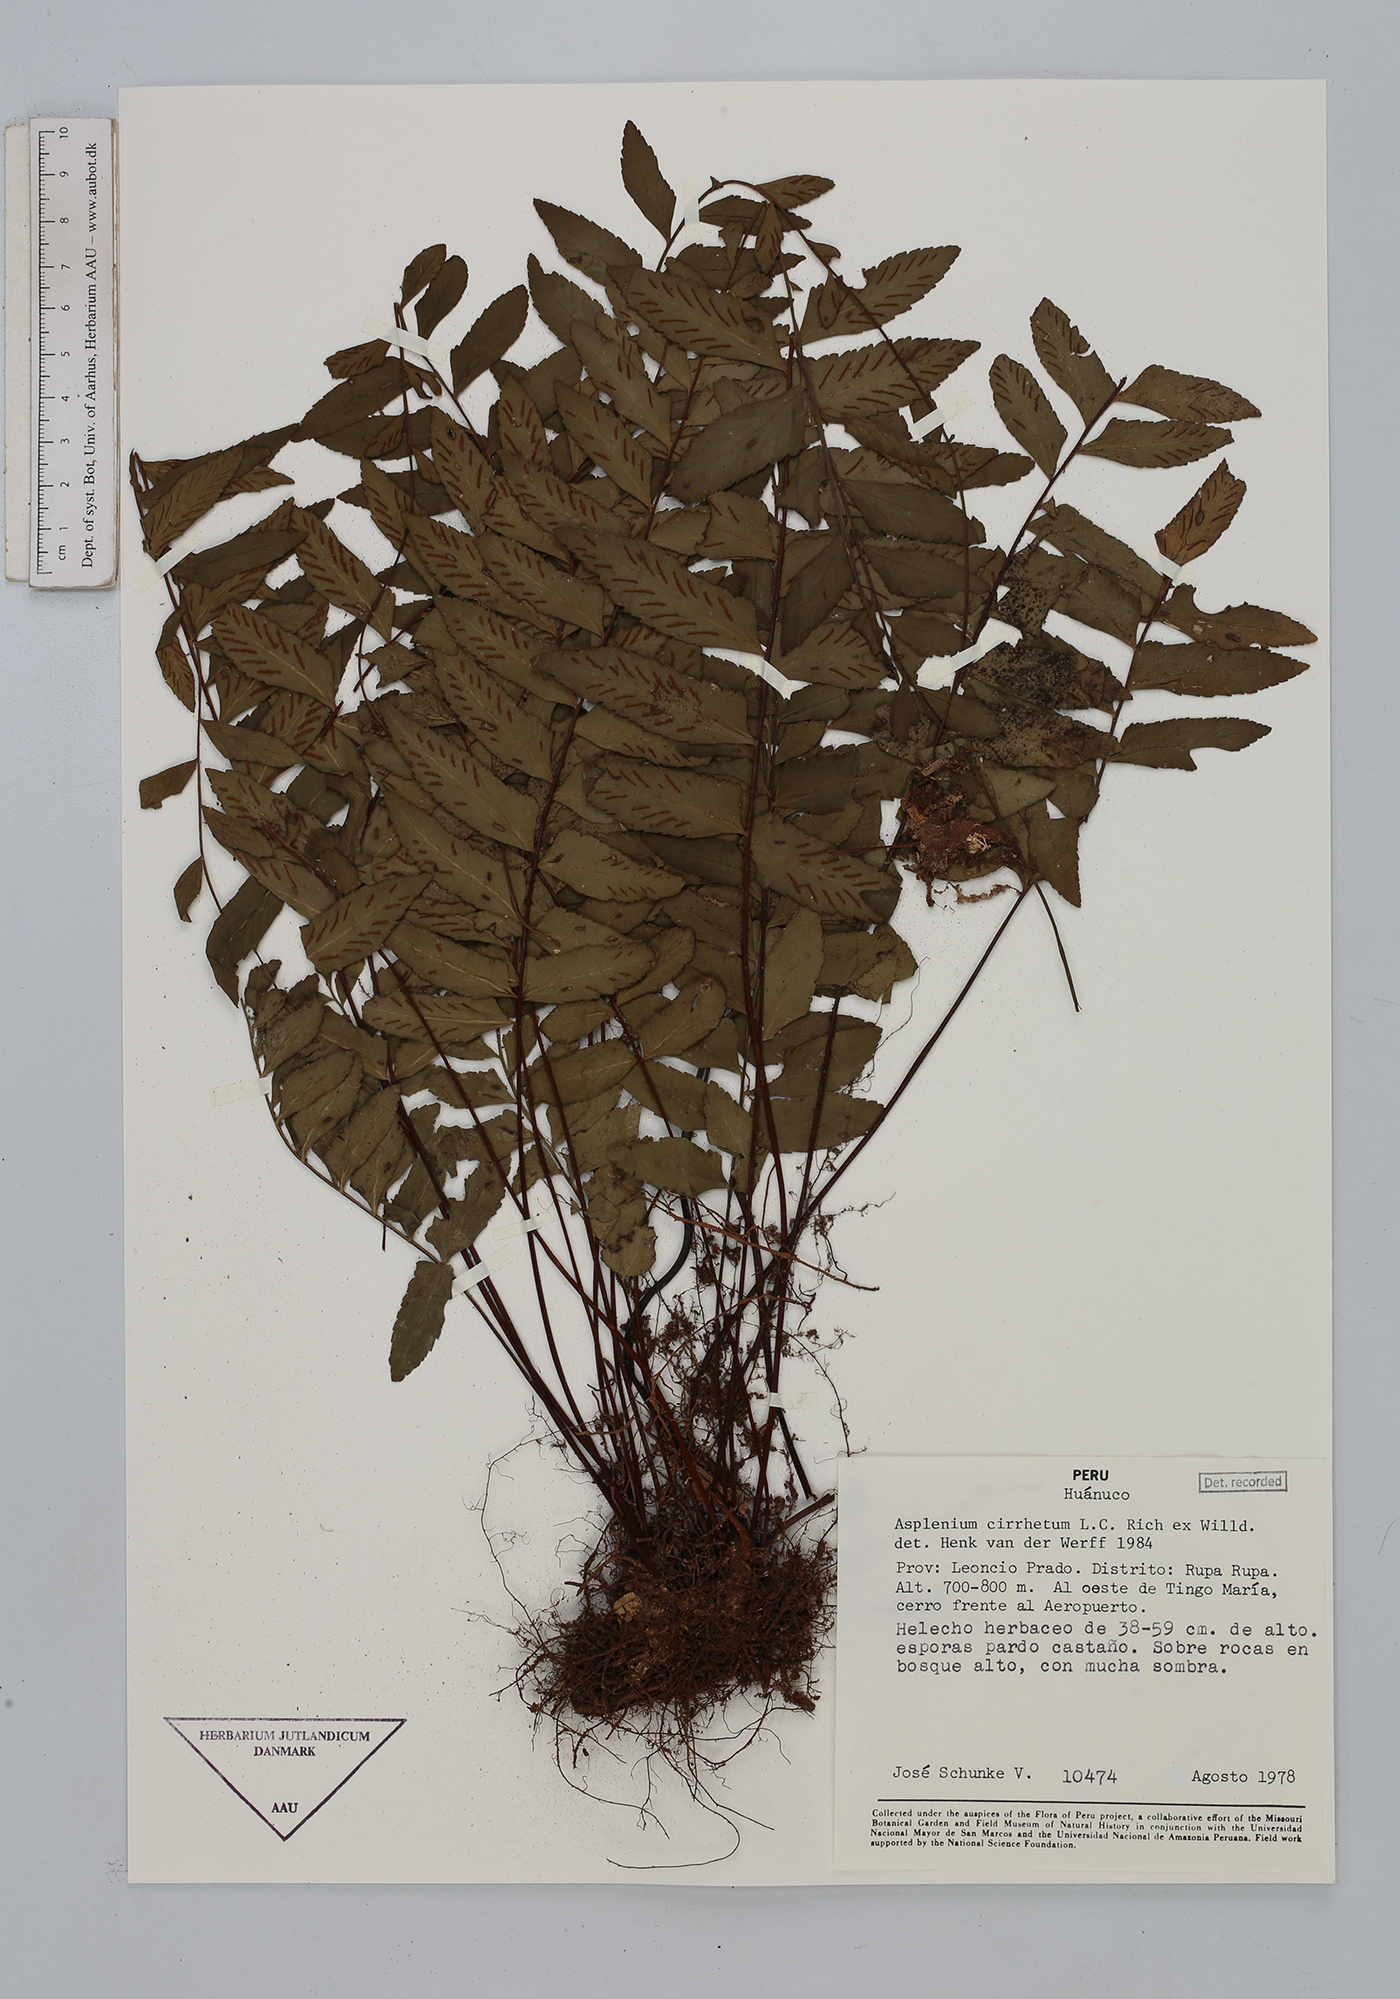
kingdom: Plantae
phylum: Tracheophyta
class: Polypodiopsida
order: Polypodiales
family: Aspleniaceae
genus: Asplenium
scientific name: Asplenium cirrhatum
